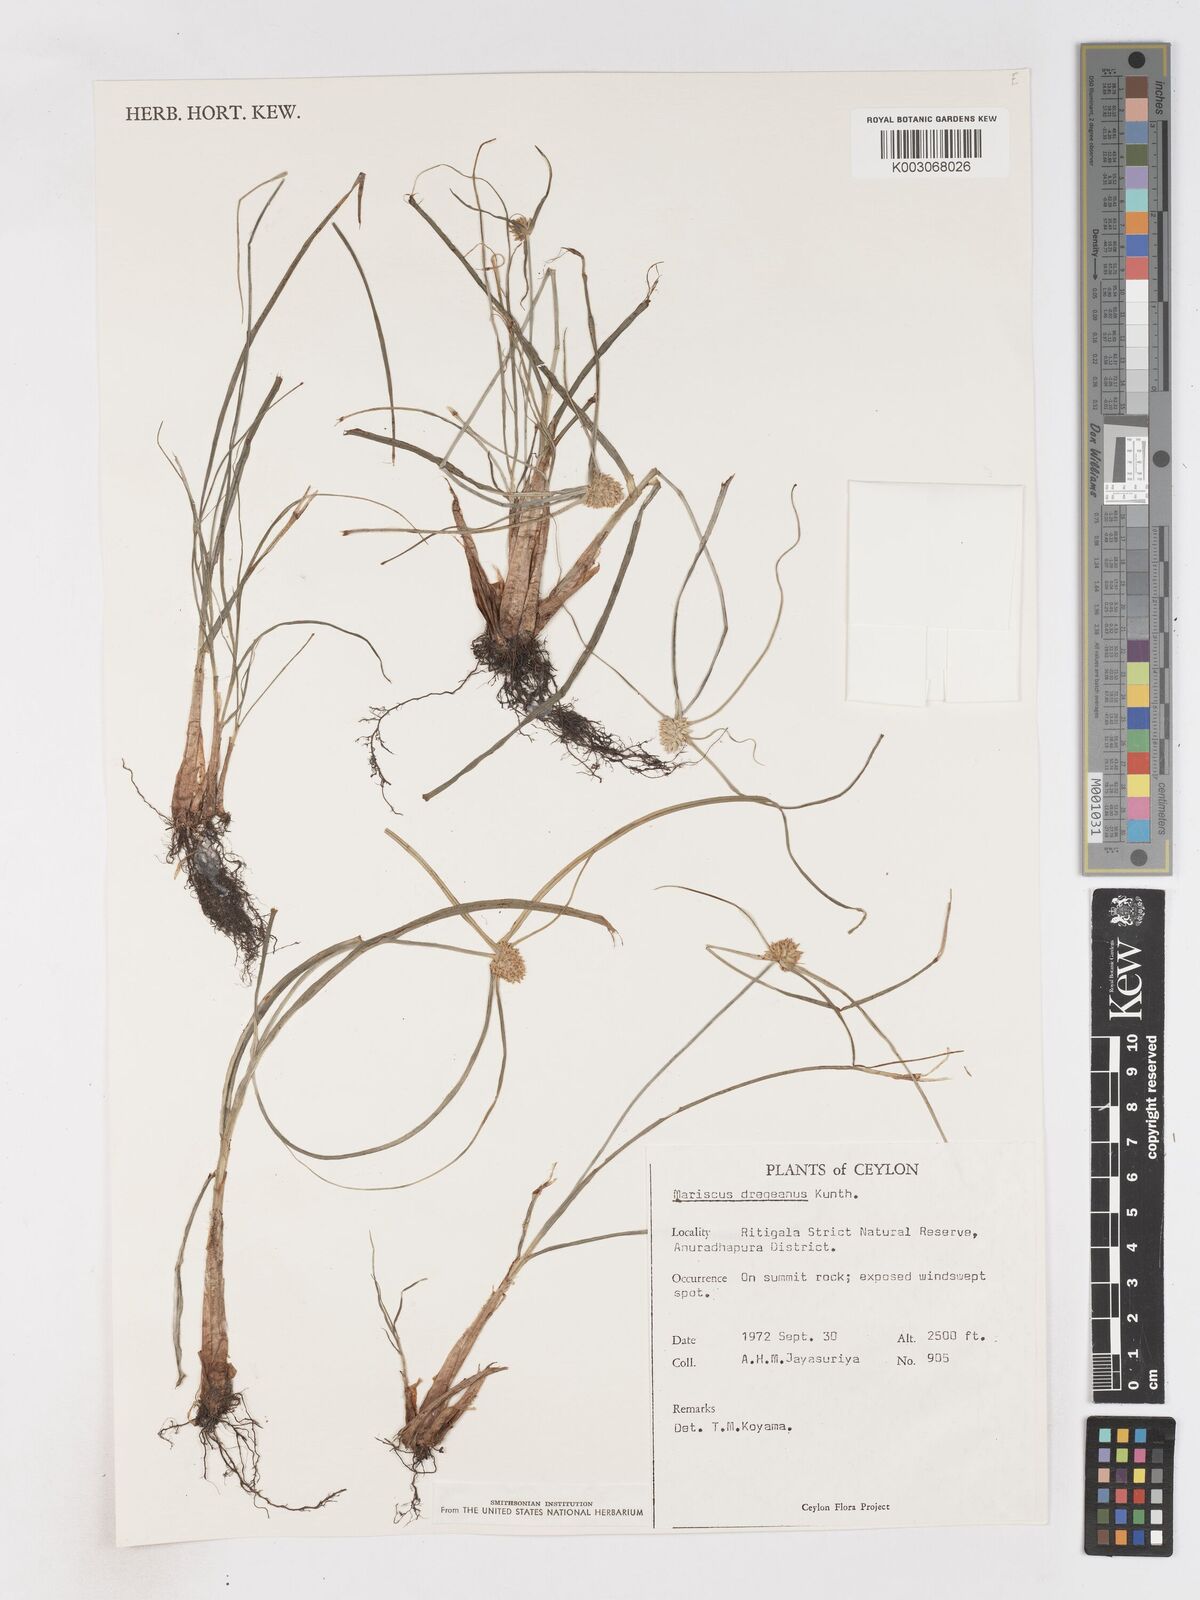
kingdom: Plantae
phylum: Tracheophyta
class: Liliopsida
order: Poales
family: Cyperaceae
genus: Cyperus
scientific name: Cyperus dubius
